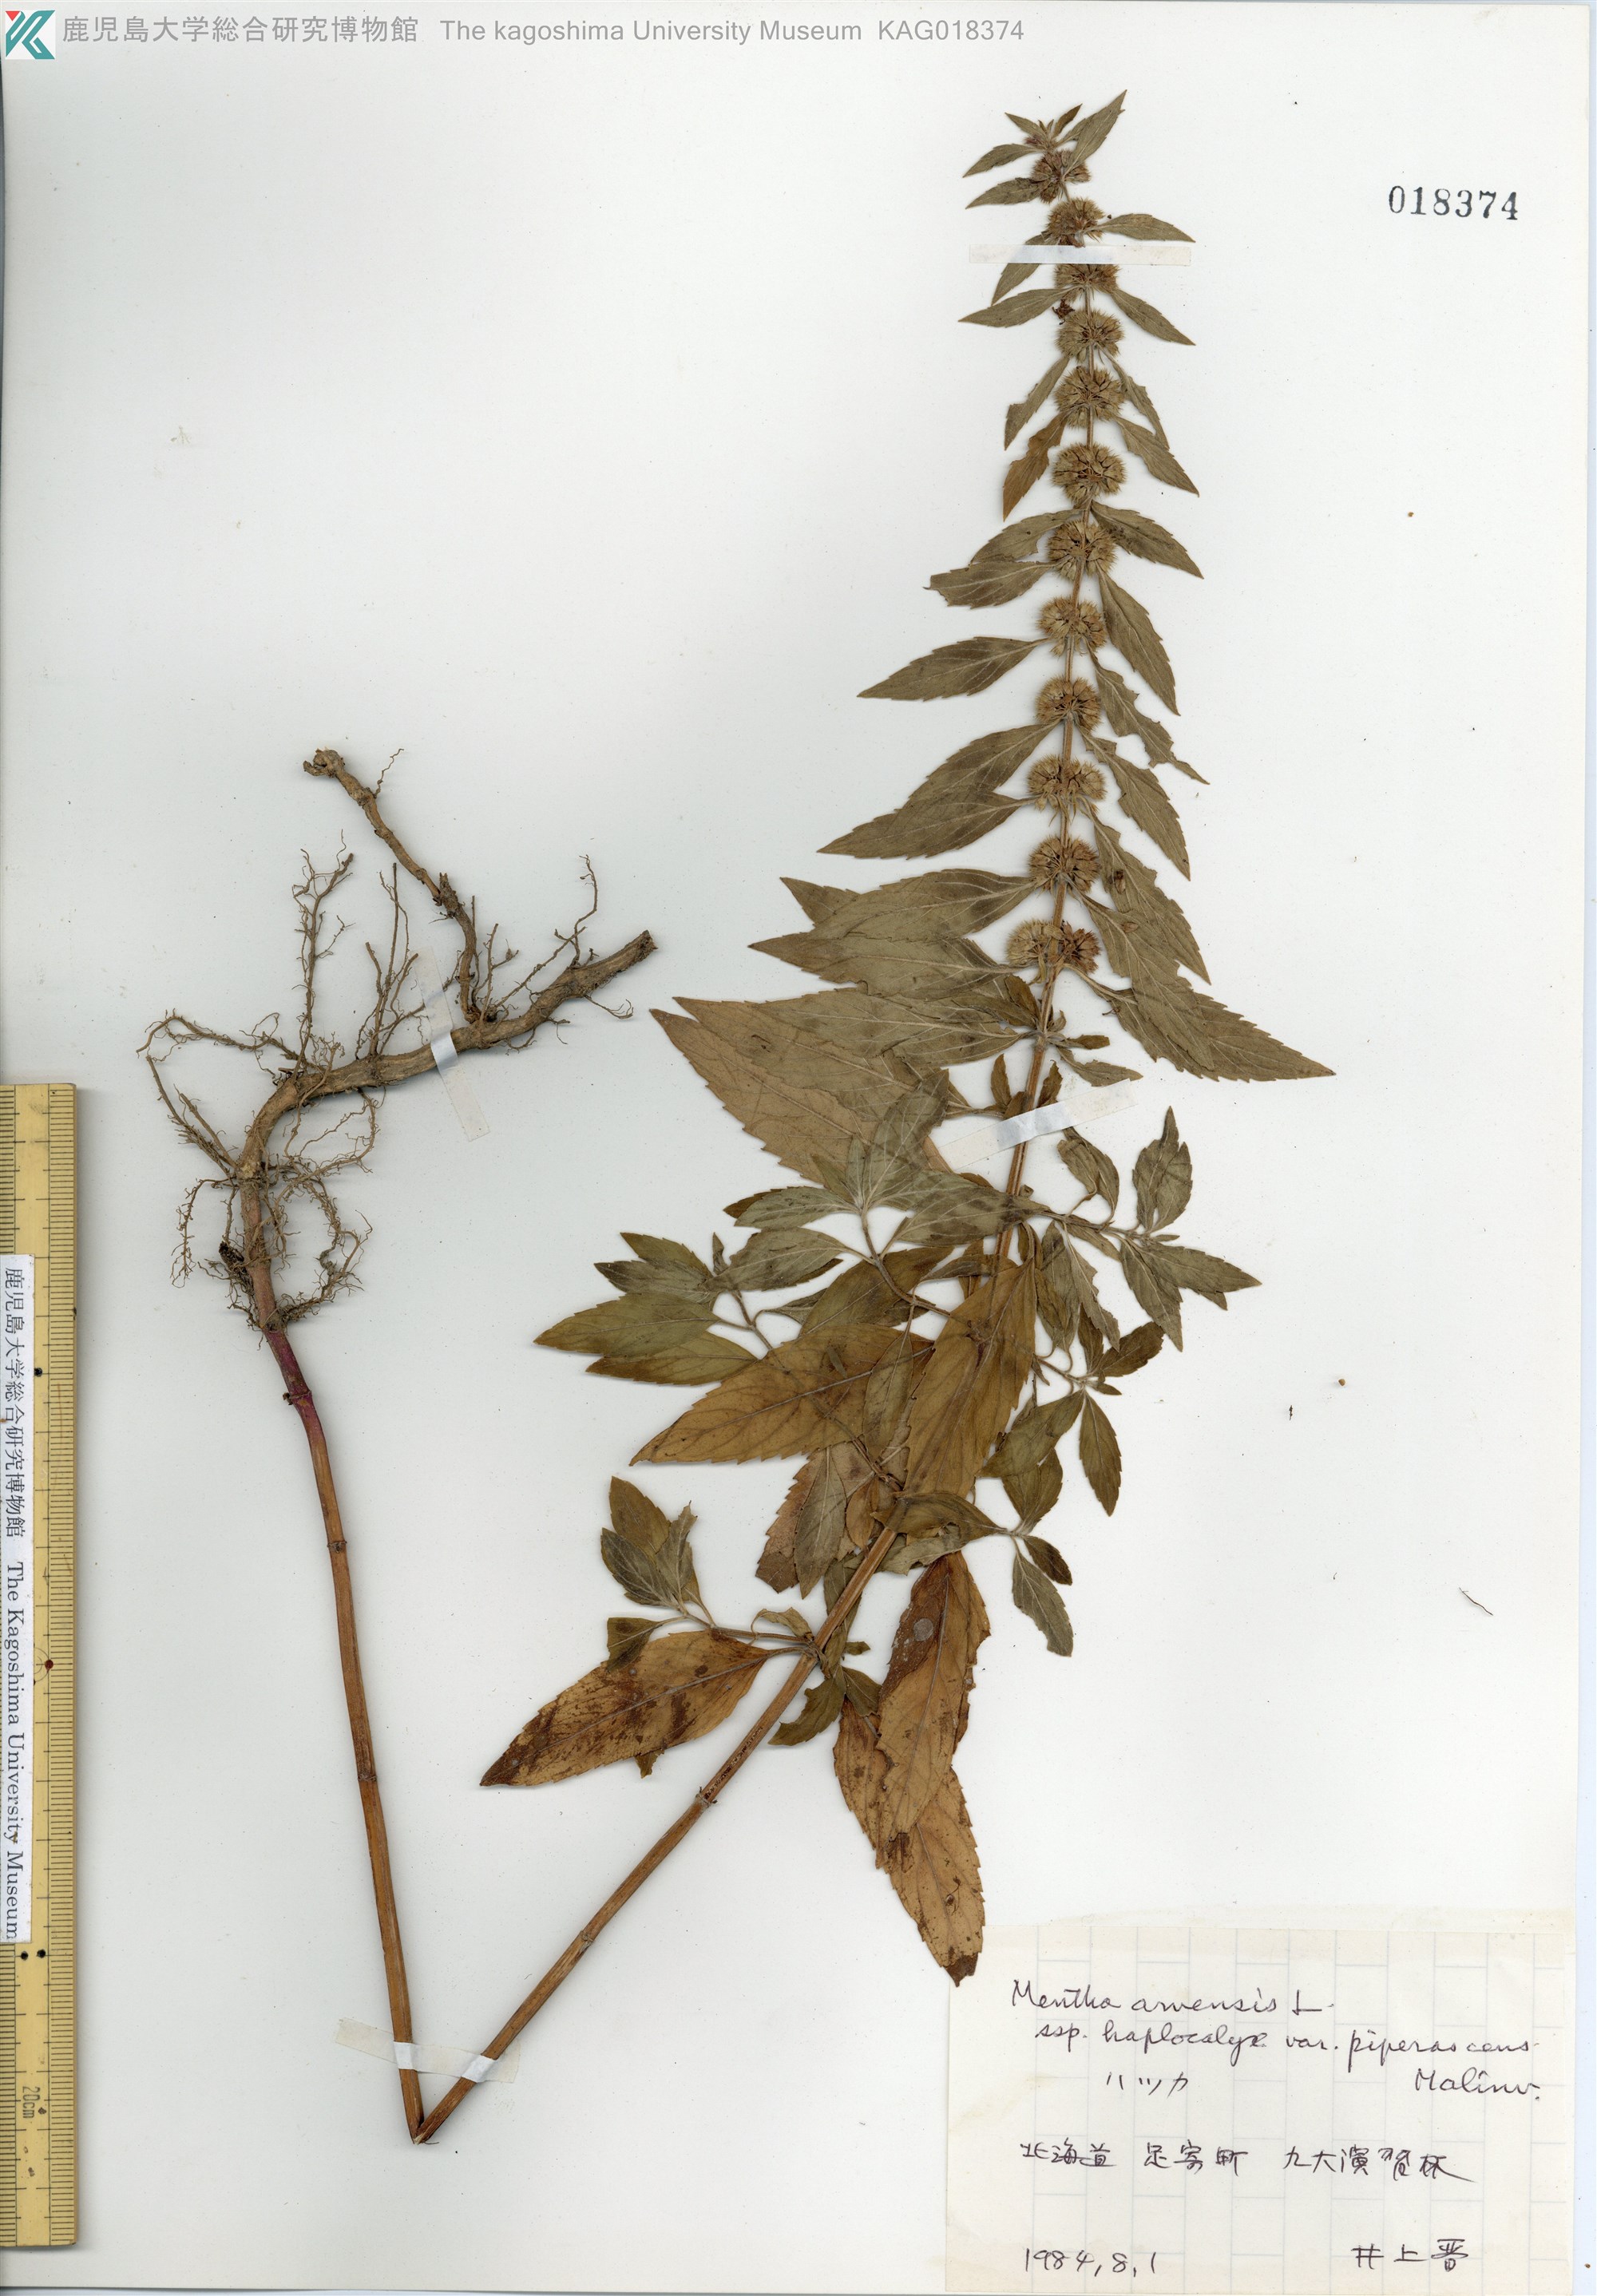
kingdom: Plantae
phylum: Tracheophyta
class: Magnoliopsida
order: Lamiales
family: Lamiaceae
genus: Mentha
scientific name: Mentha canadensis
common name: ハッカ
